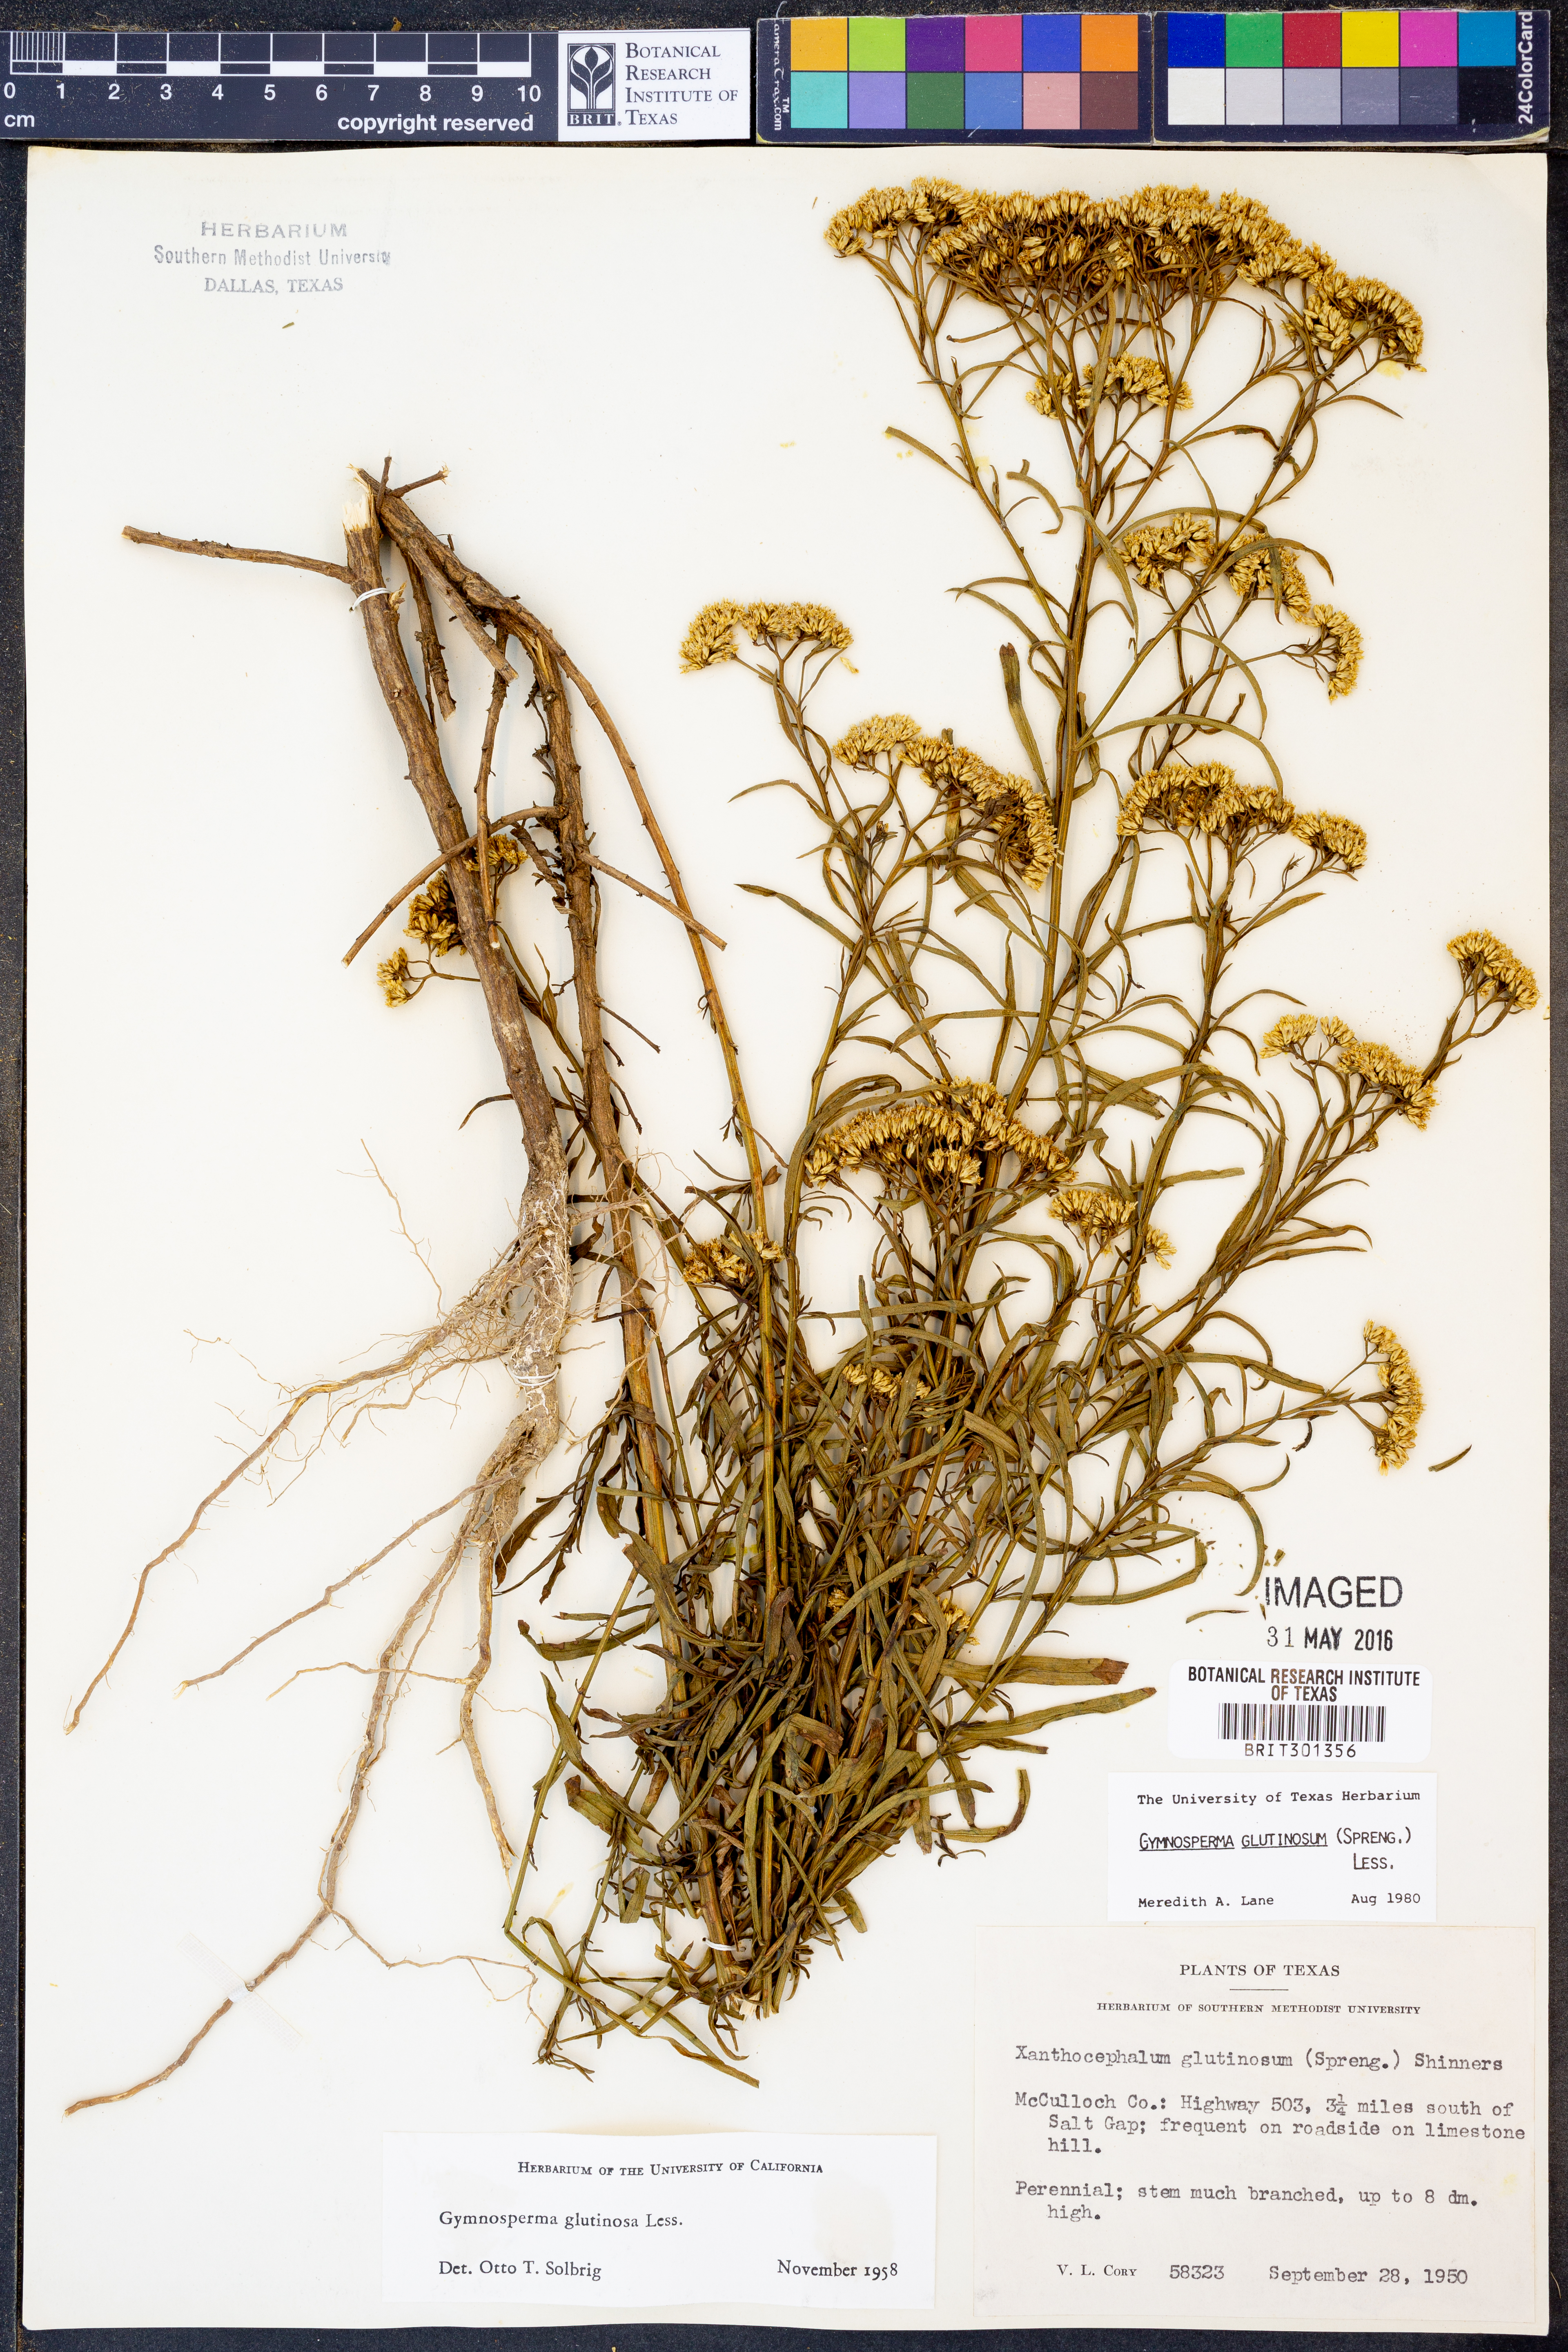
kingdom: Plantae
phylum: Tracheophyta
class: Magnoliopsida
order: Asterales
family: Asteraceae
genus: Gymnosperma
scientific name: Gymnosperma glutinosum
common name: Gumhead
